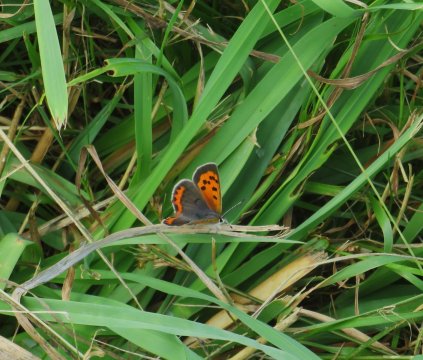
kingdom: Animalia
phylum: Arthropoda
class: Insecta
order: Lepidoptera
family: Lycaenidae
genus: Lycaena
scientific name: Lycaena phlaeas
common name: American Copper
